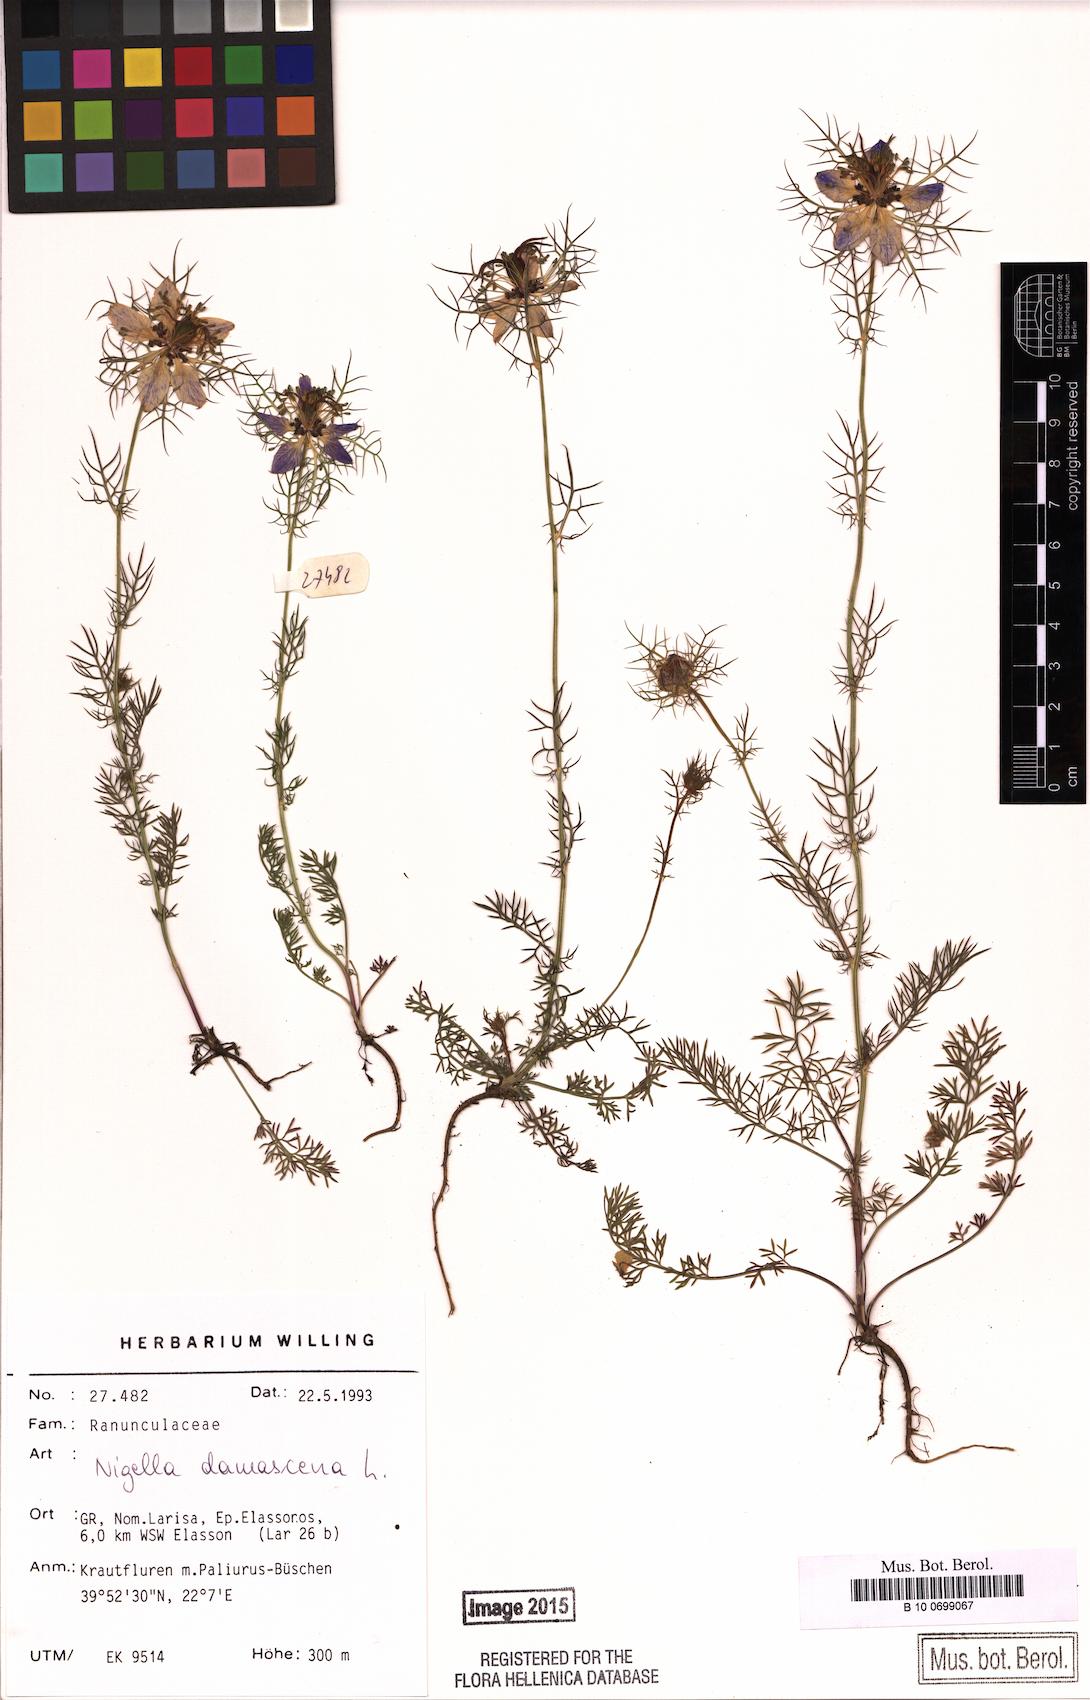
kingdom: Plantae
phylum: Tracheophyta
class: Magnoliopsida
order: Ranunculales
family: Ranunculaceae
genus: Nigella
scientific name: Nigella damascena
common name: Love-in-a-mist
